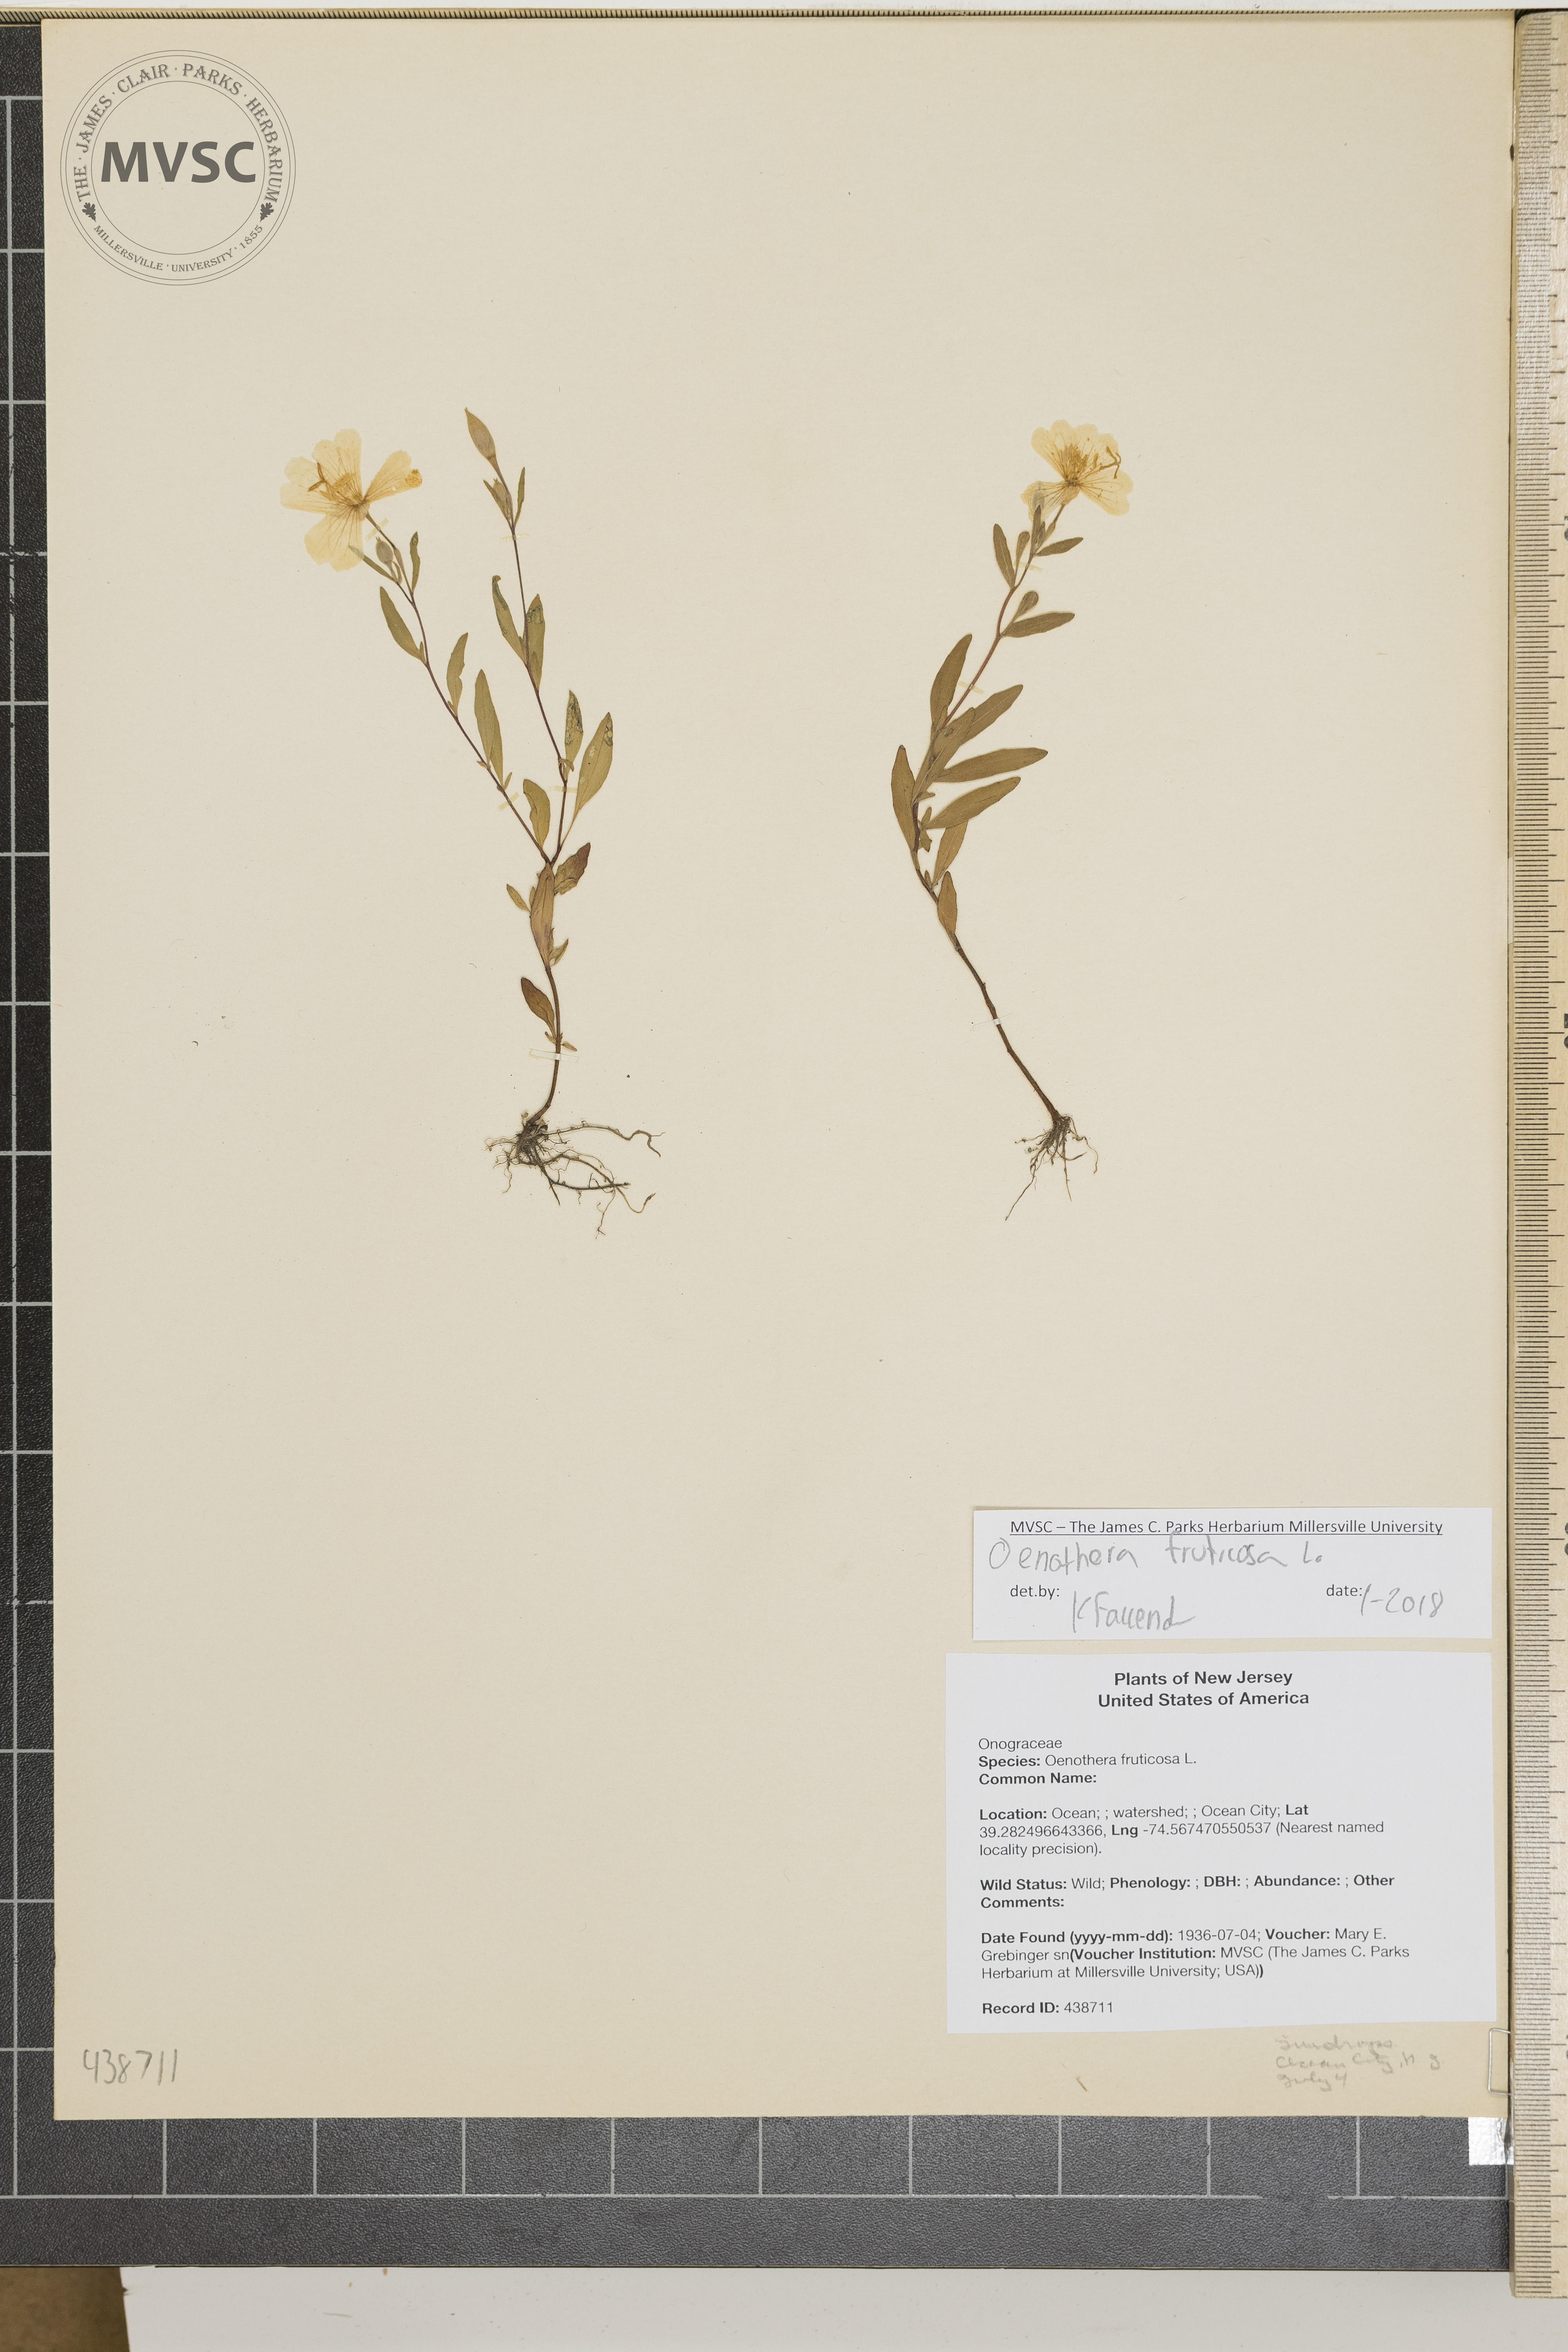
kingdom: Plantae
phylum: Tracheophyta
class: Magnoliopsida
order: Myrtales
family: Onagraceae
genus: Oenothera
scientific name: Oenothera fruticosa
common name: Southern sundrops
